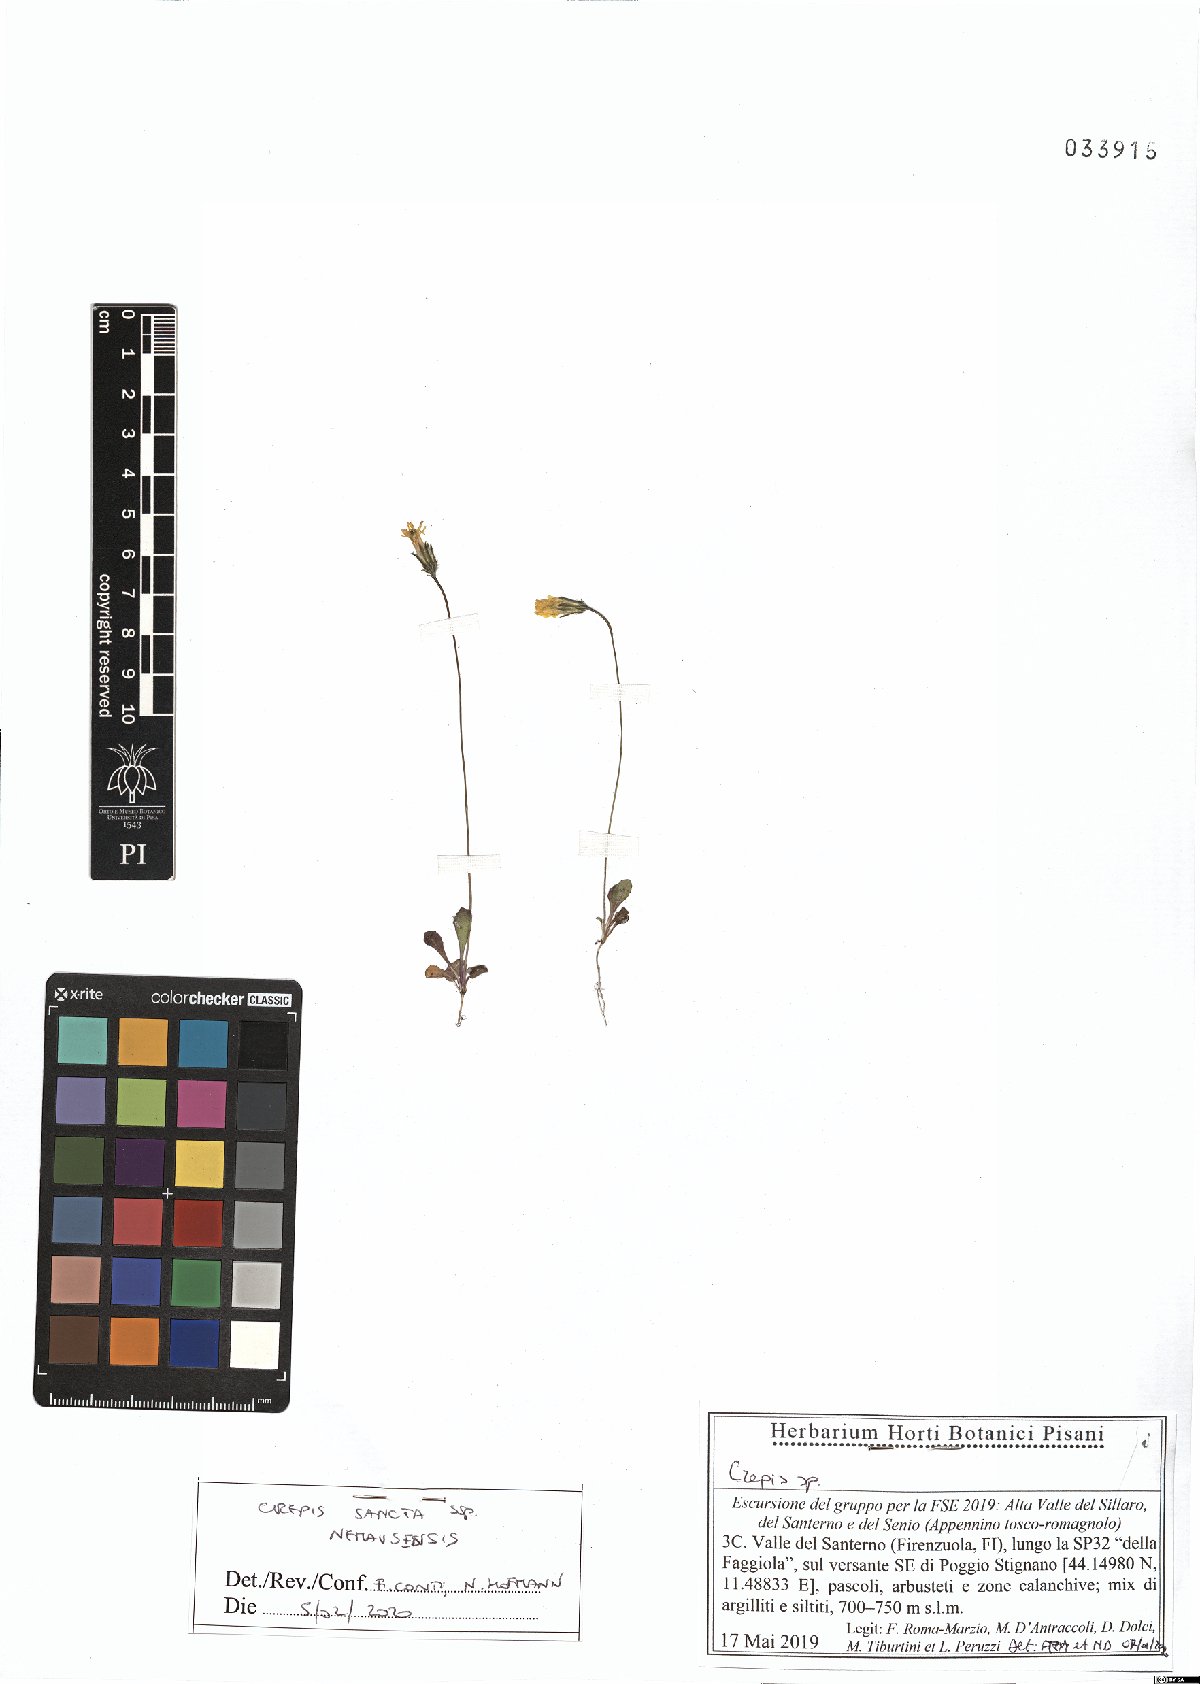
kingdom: Plantae
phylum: Tracheophyta
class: Magnoliopsida
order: Asterales
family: Asteraceae
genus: Crepis
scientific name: Crepis sancta
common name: Hawk's-beard
